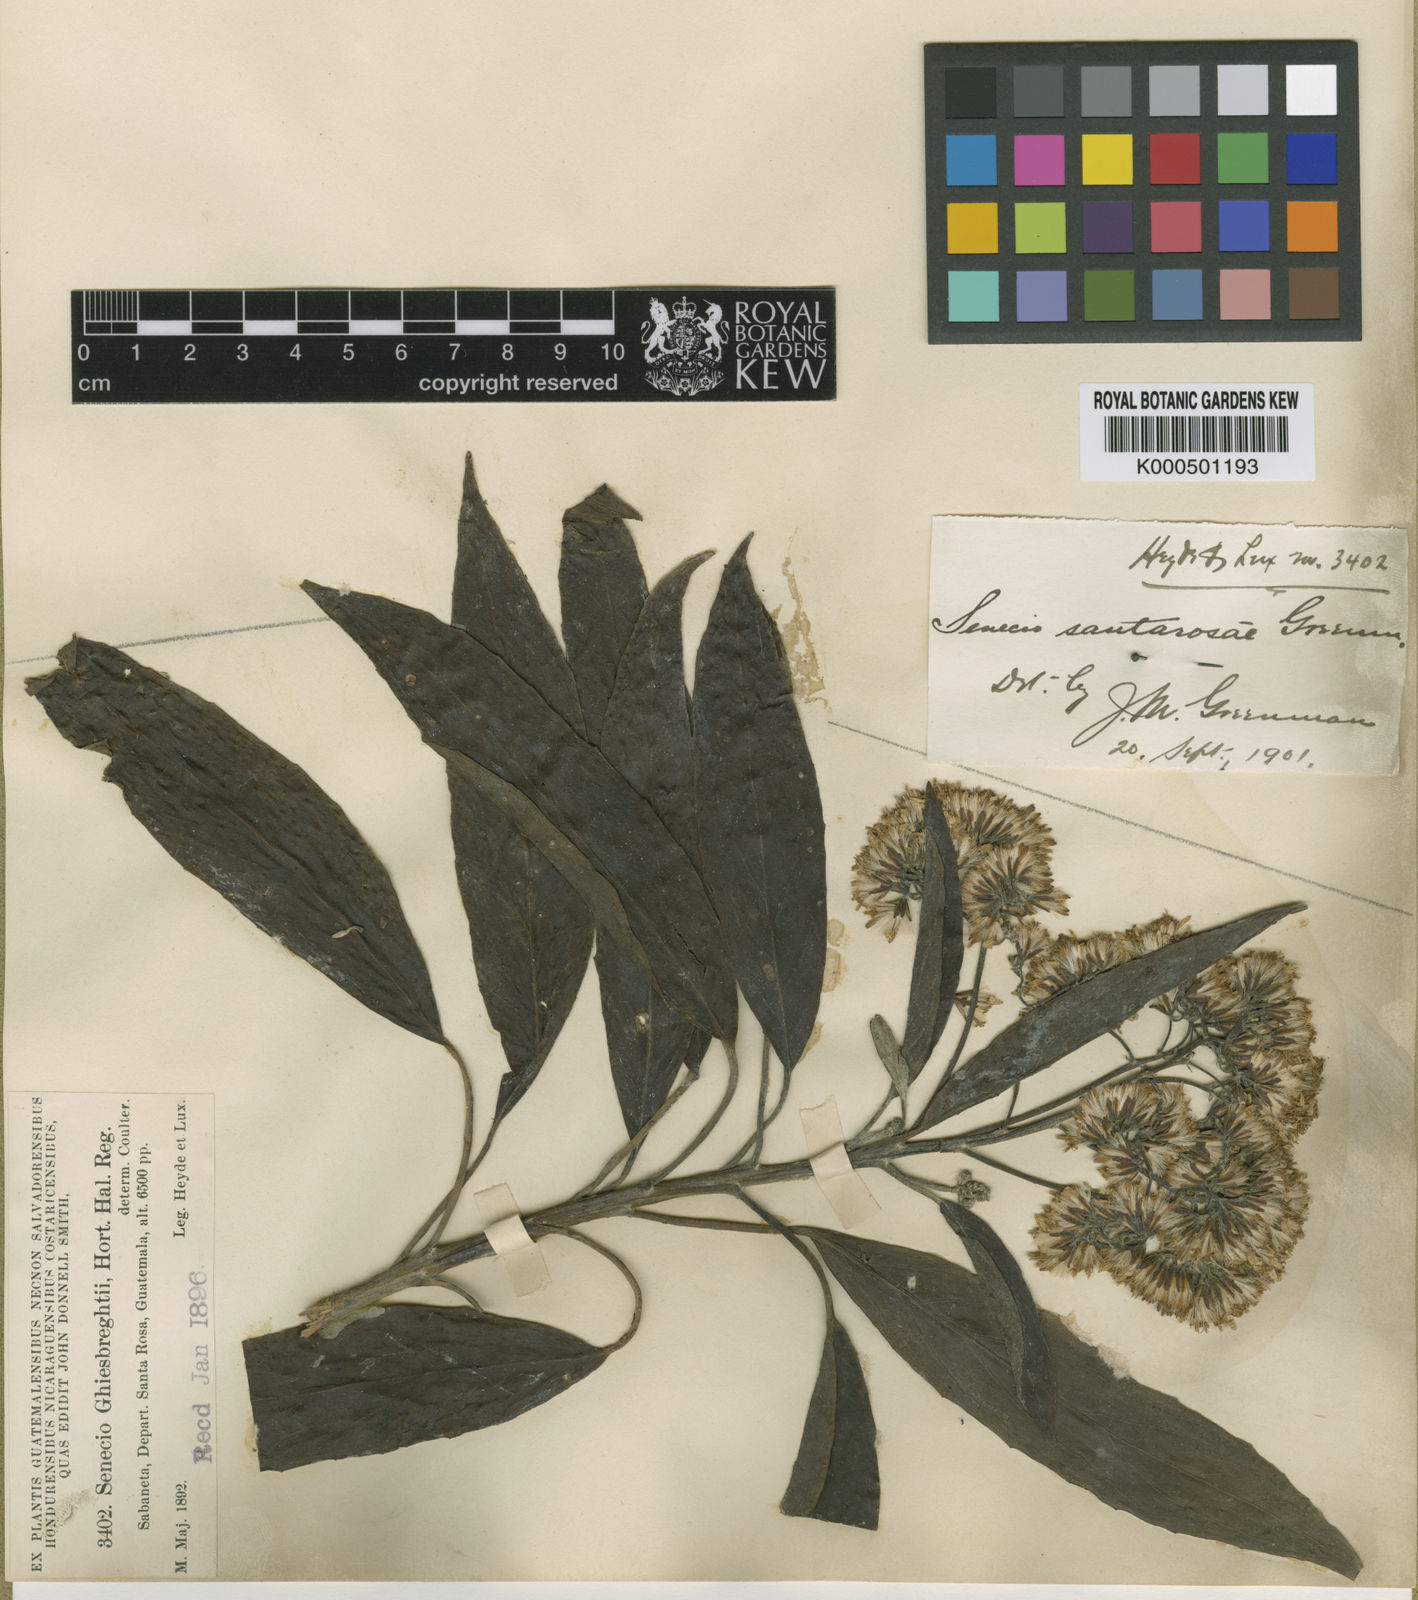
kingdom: Plantae
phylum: Tracheophyta
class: Magnoliopsida
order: Asterales
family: Asteraceae
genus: Roldana
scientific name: Roldana schaffneri
